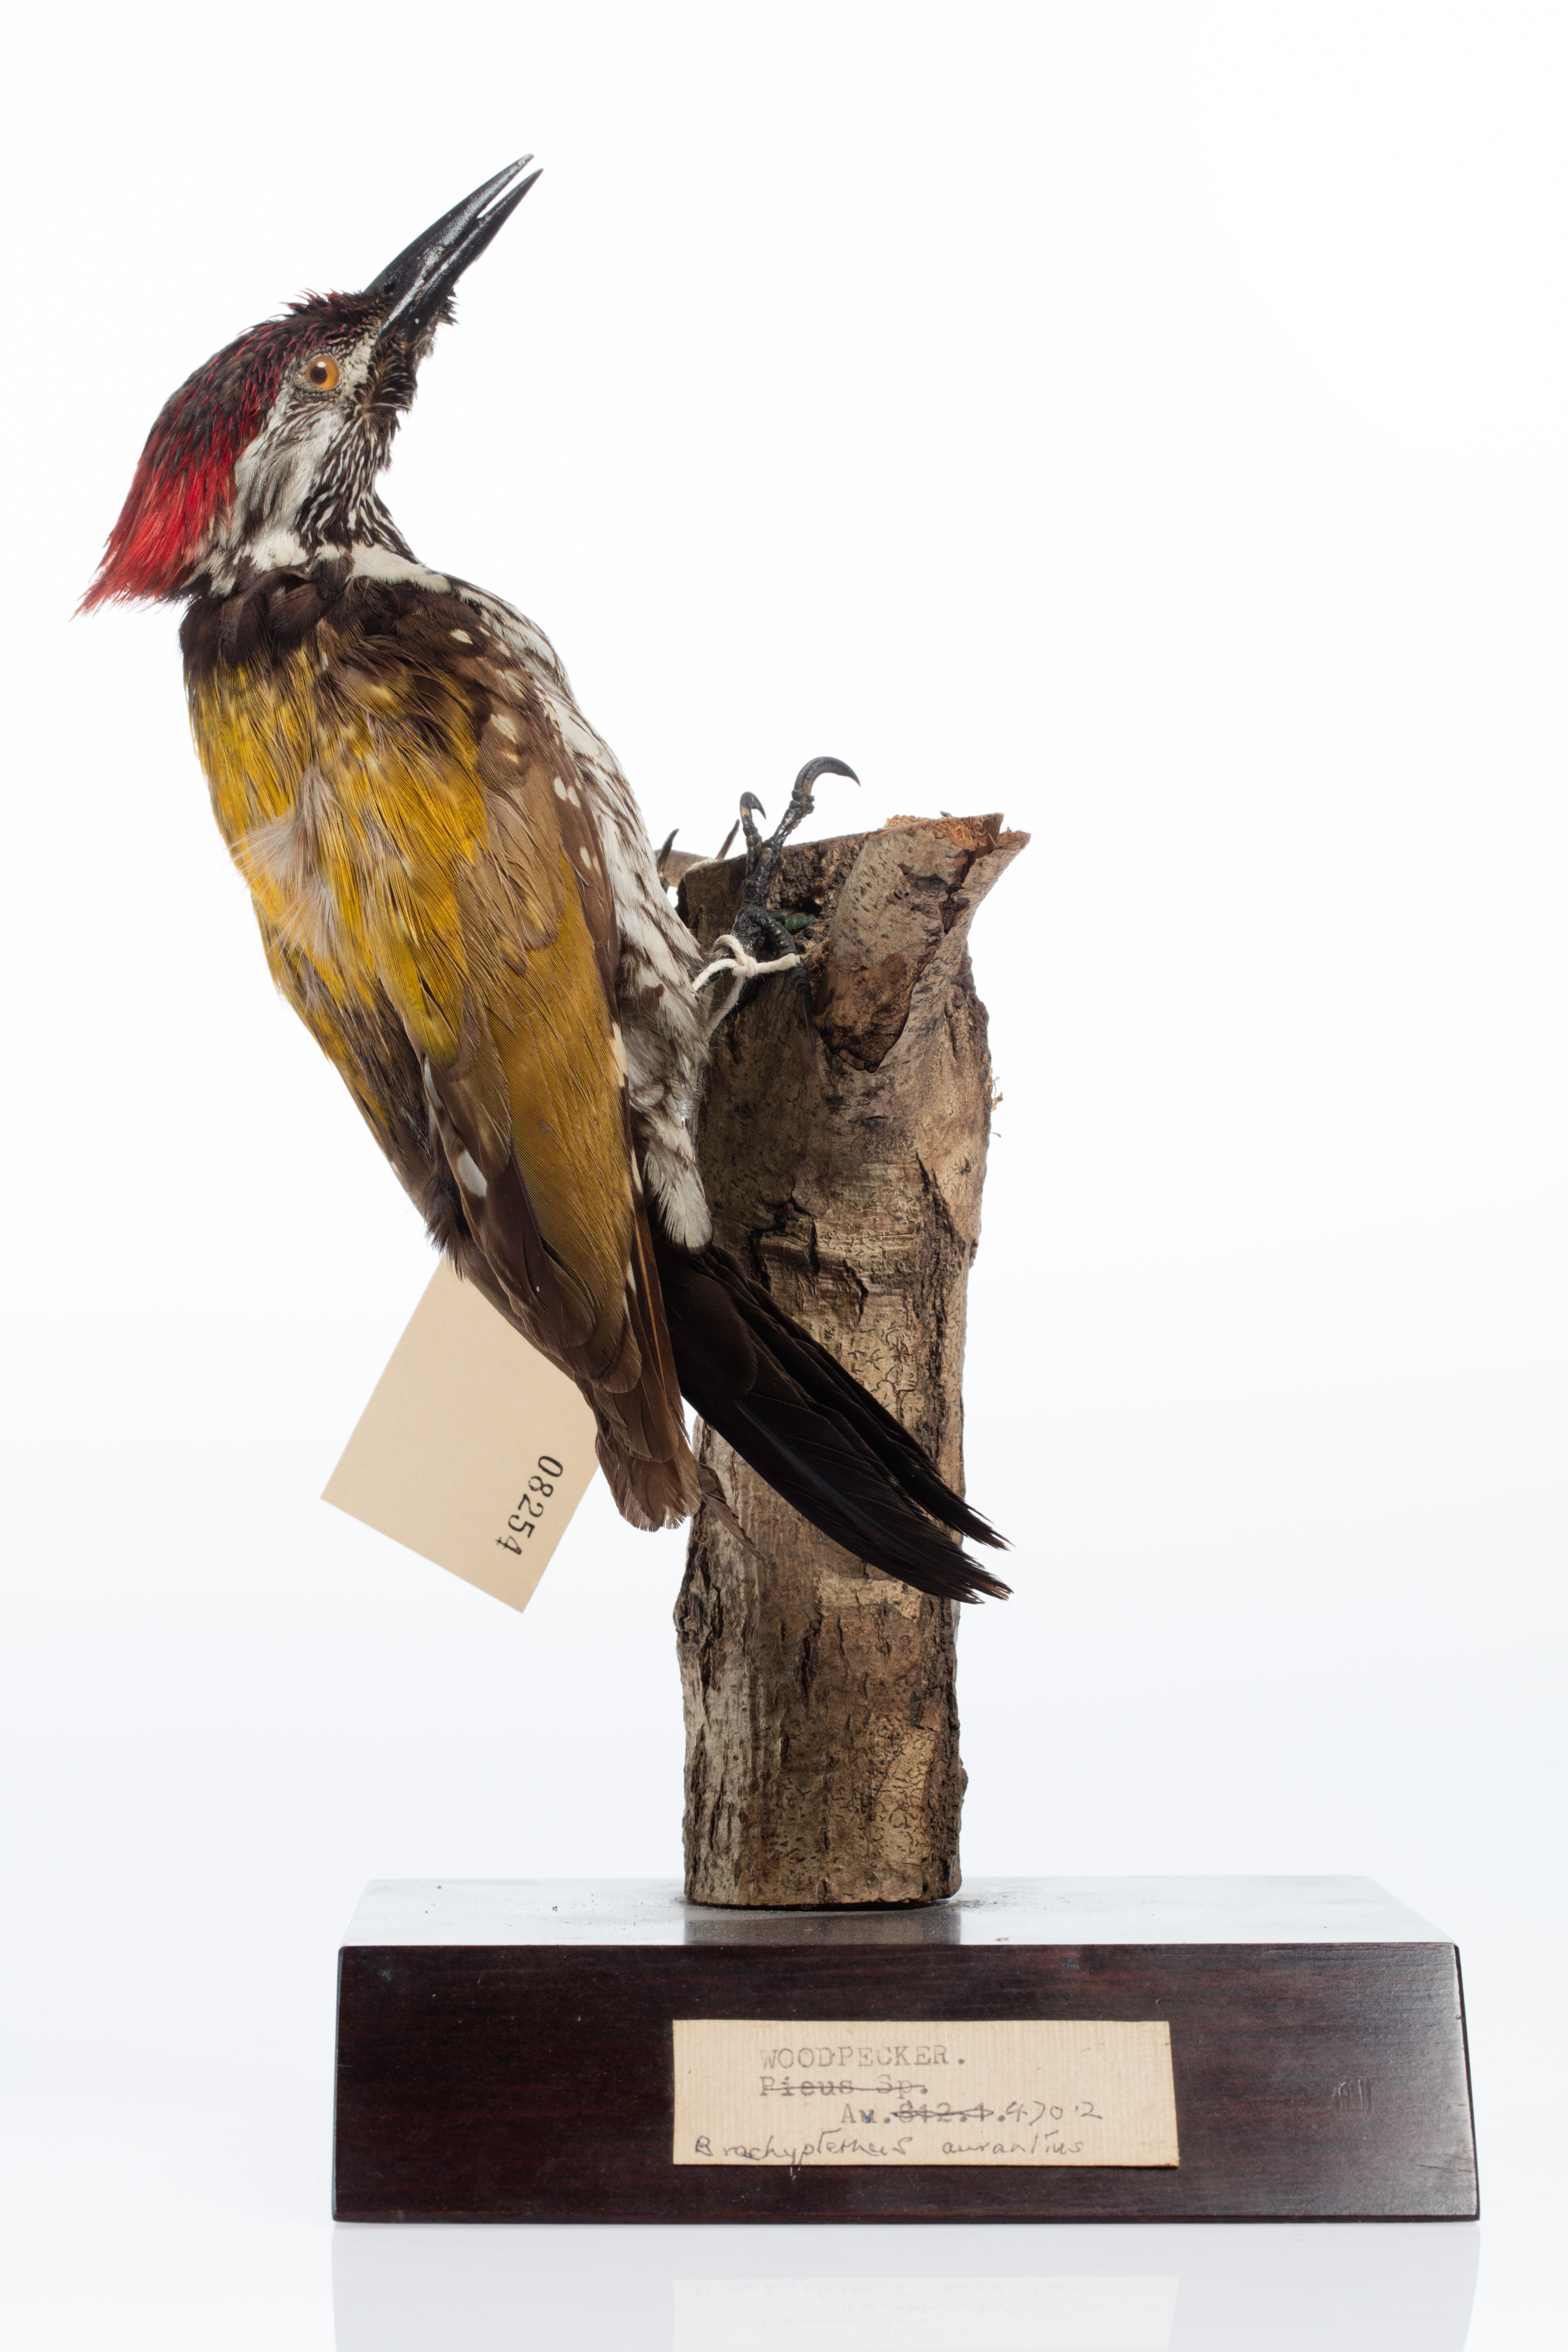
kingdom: Animalia
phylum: Chordata
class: Aves
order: Piciformes
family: Picidae
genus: Dinopium
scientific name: Dinopium benghalense
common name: Black-rumped flameback
